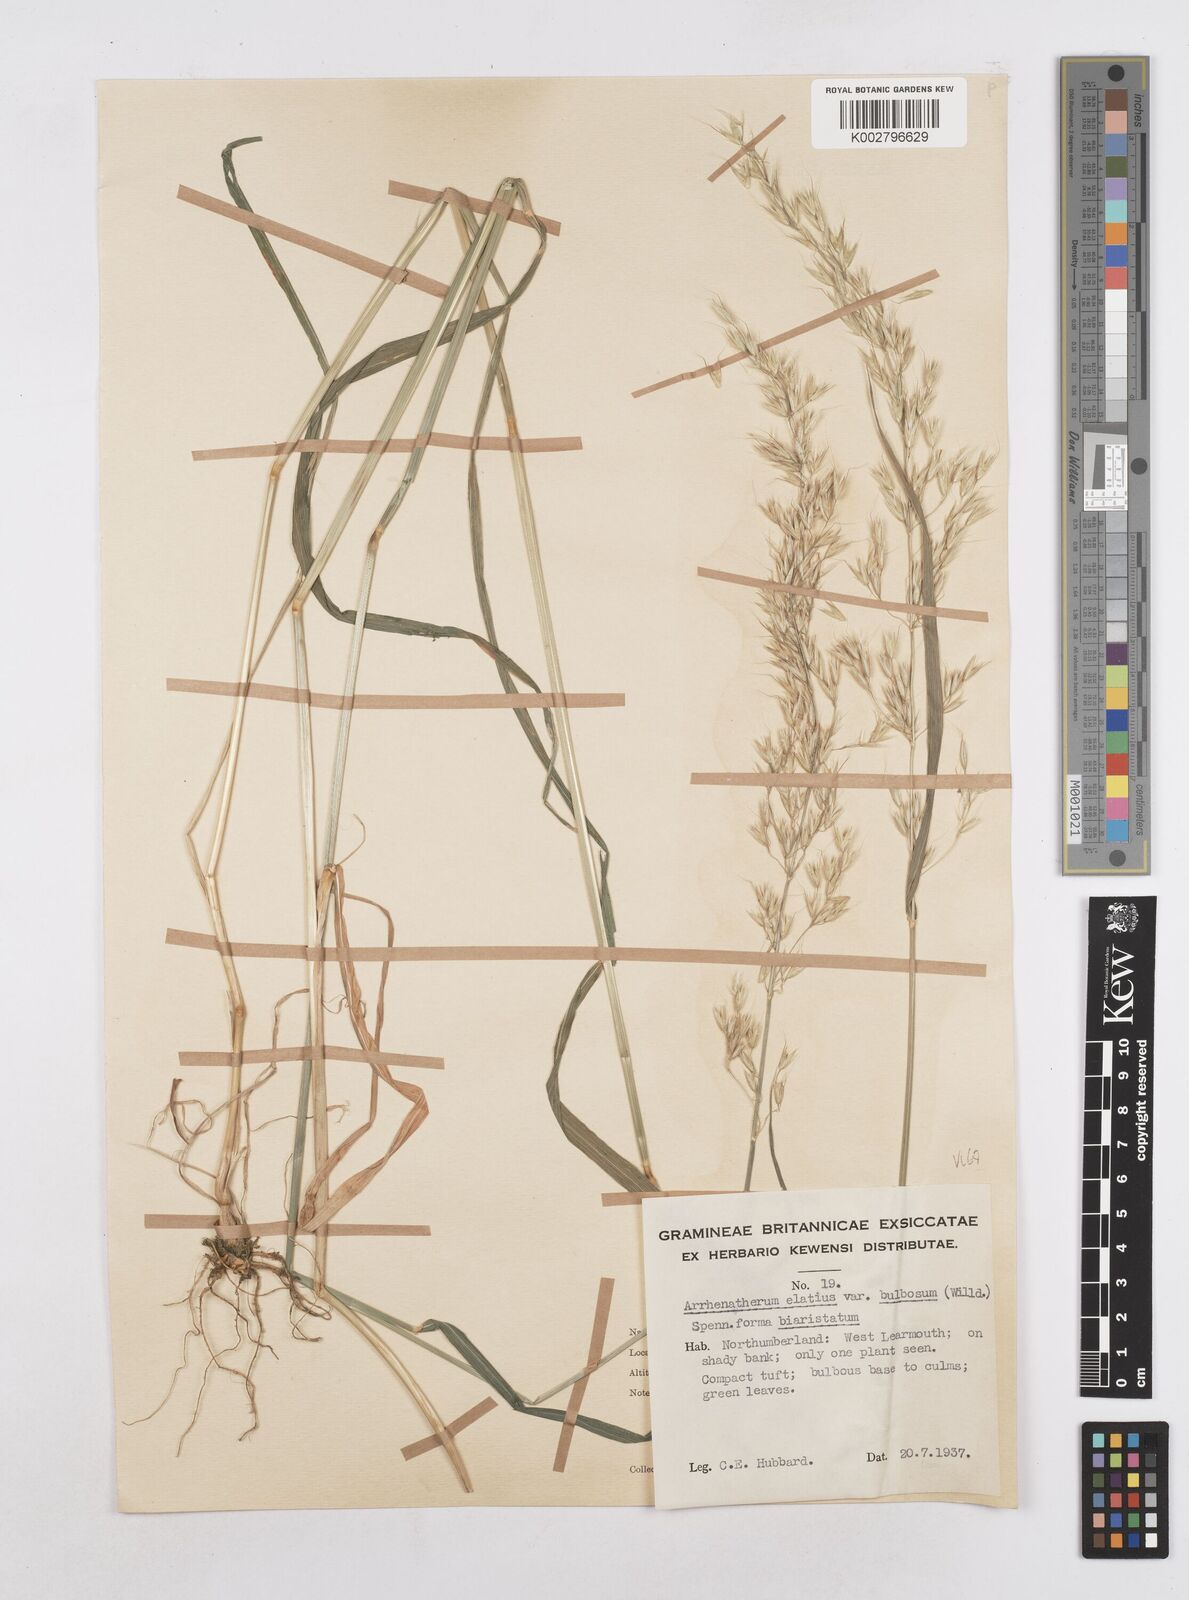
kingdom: Plantae
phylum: Tracheophyta
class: Liliopsida
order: Poales
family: Poaceae
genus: Arrhenatherum
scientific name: Arrhenatherum elatius
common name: Tall oatgrass
